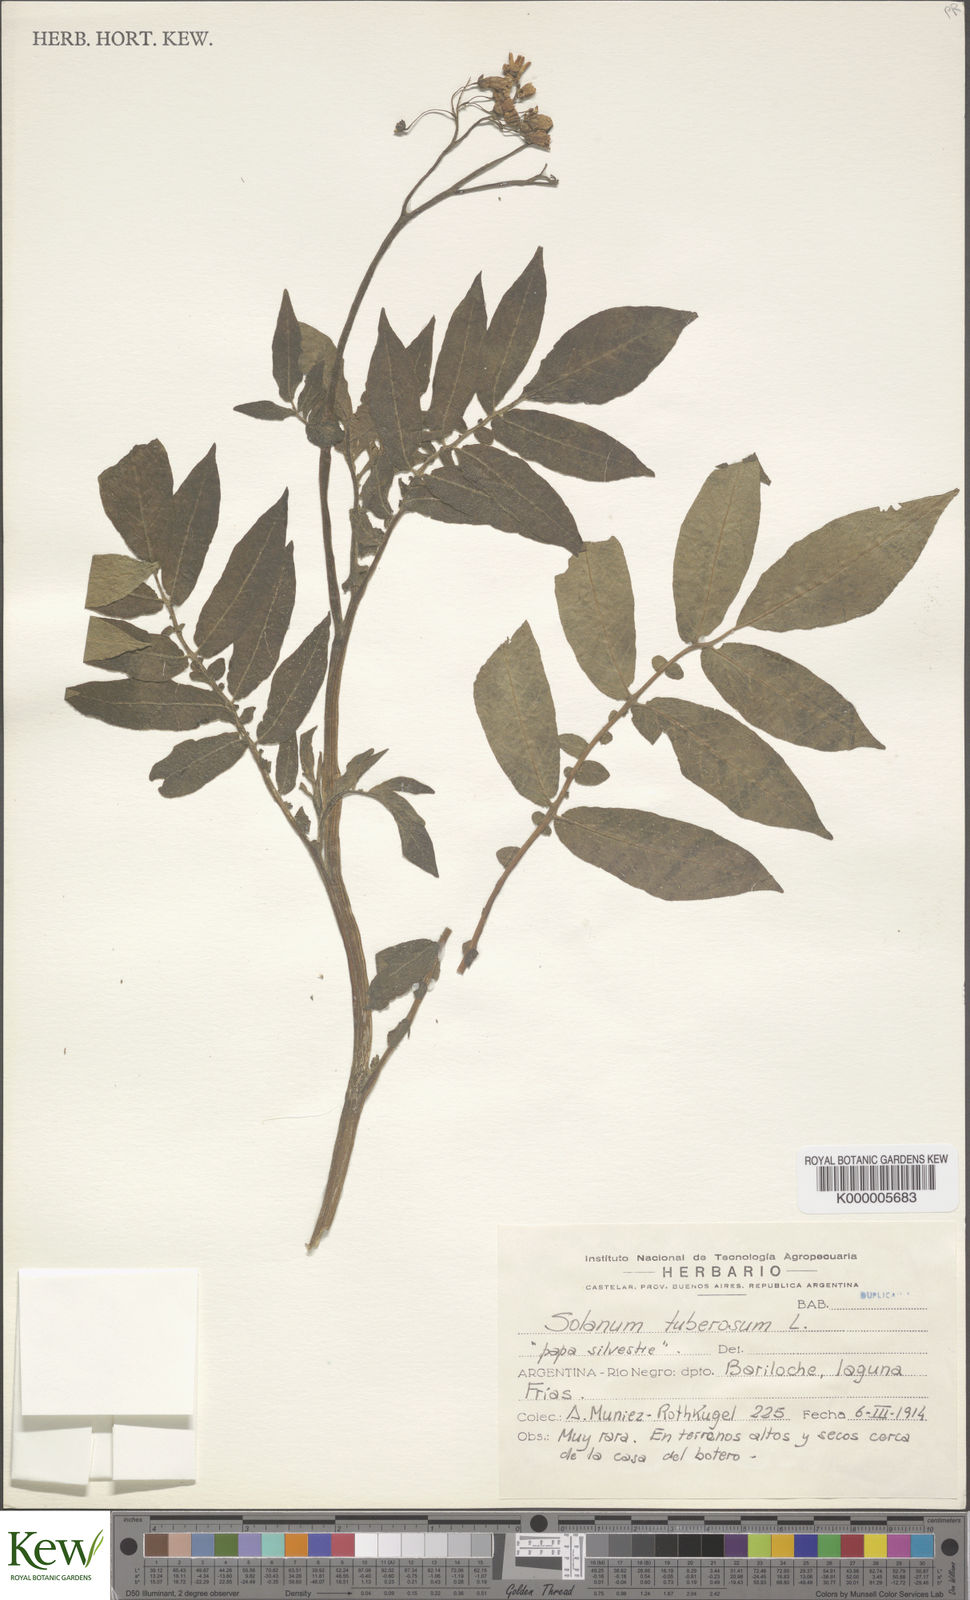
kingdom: Plantae
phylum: Tracheophyta
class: Magnoliopsida
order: Solanales
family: Solanaceae
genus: Solanum
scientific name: Solanum tuberosum
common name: Potato
